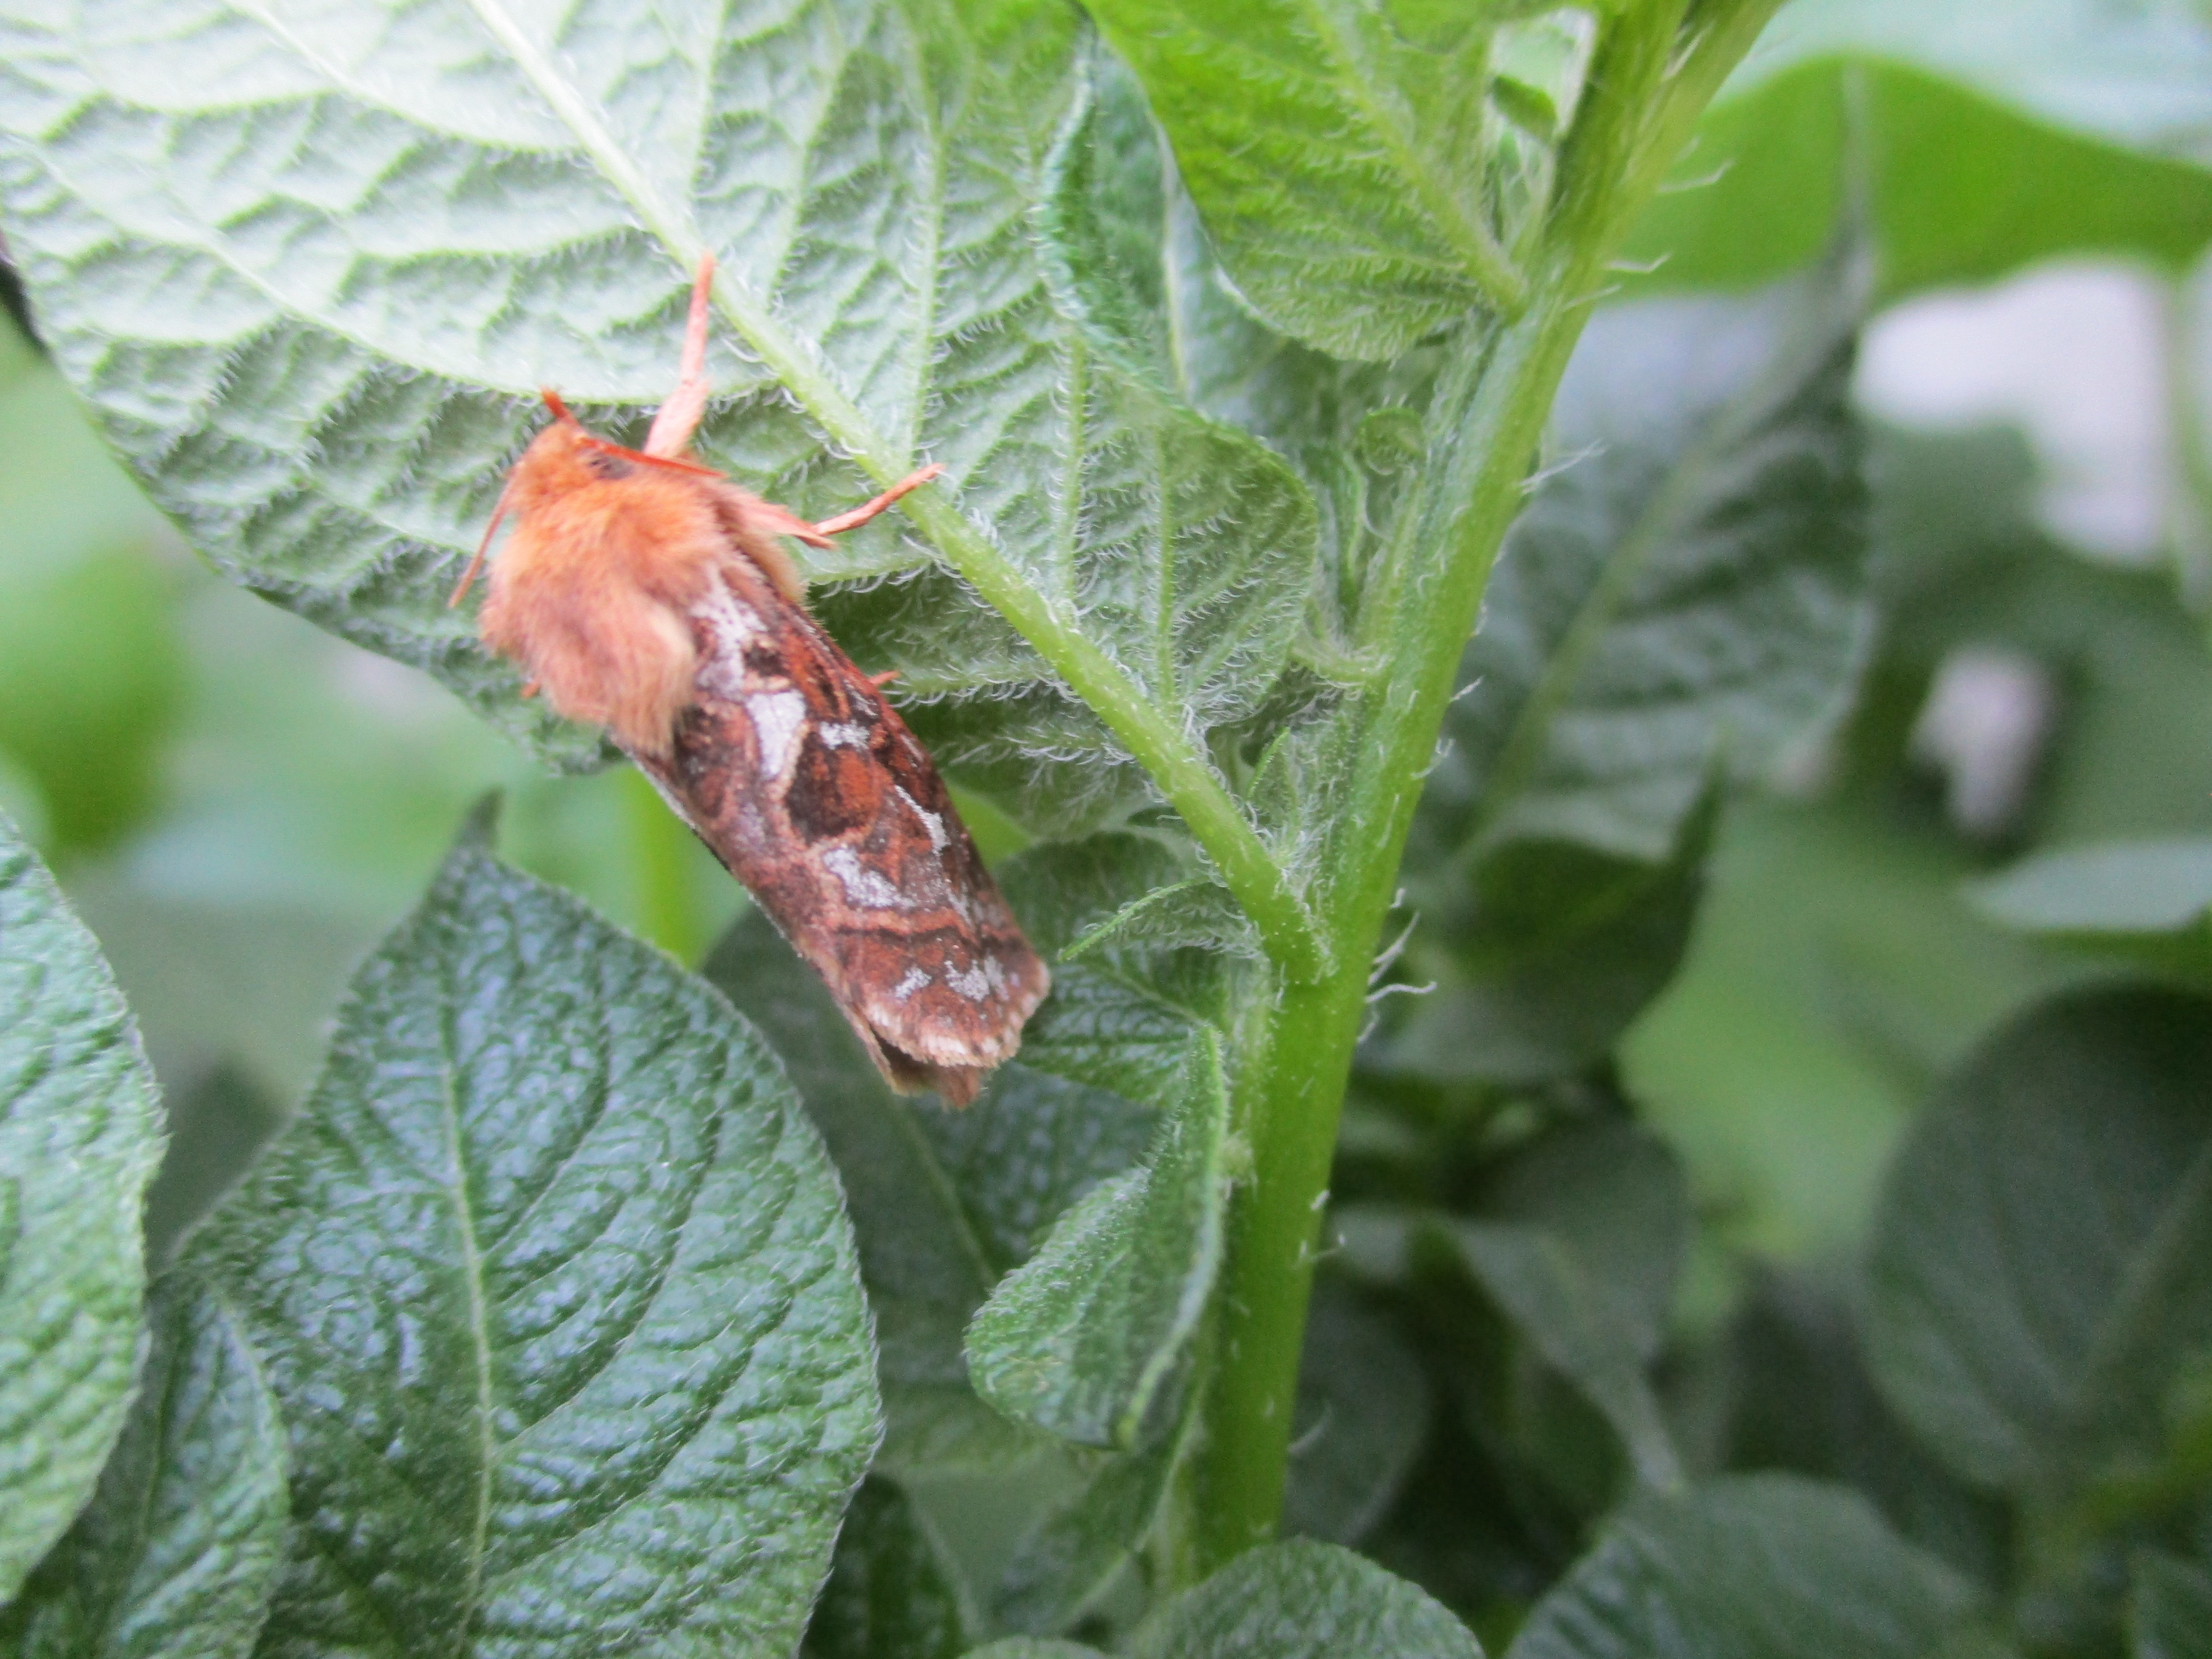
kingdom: Animalia
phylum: Arthropoda
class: Insecta
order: Lepidoptera
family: Hepialidae
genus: Korscheltellus
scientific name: Korscheltellus fusconebulosus
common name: Map-winged swift
